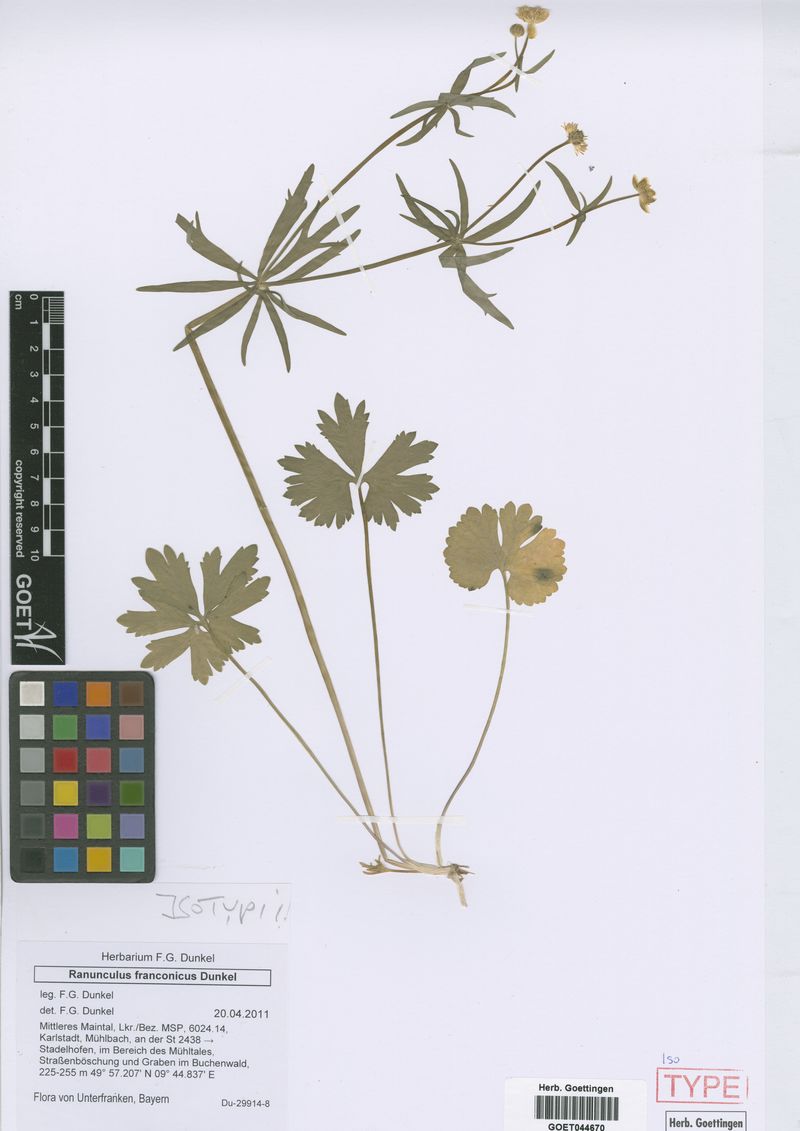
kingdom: Plantae
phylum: Tracheophyta
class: Magnoliopsida
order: Ranunculales
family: Ranunculaceae
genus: Ranunculus
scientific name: Ranunculus franconicus
